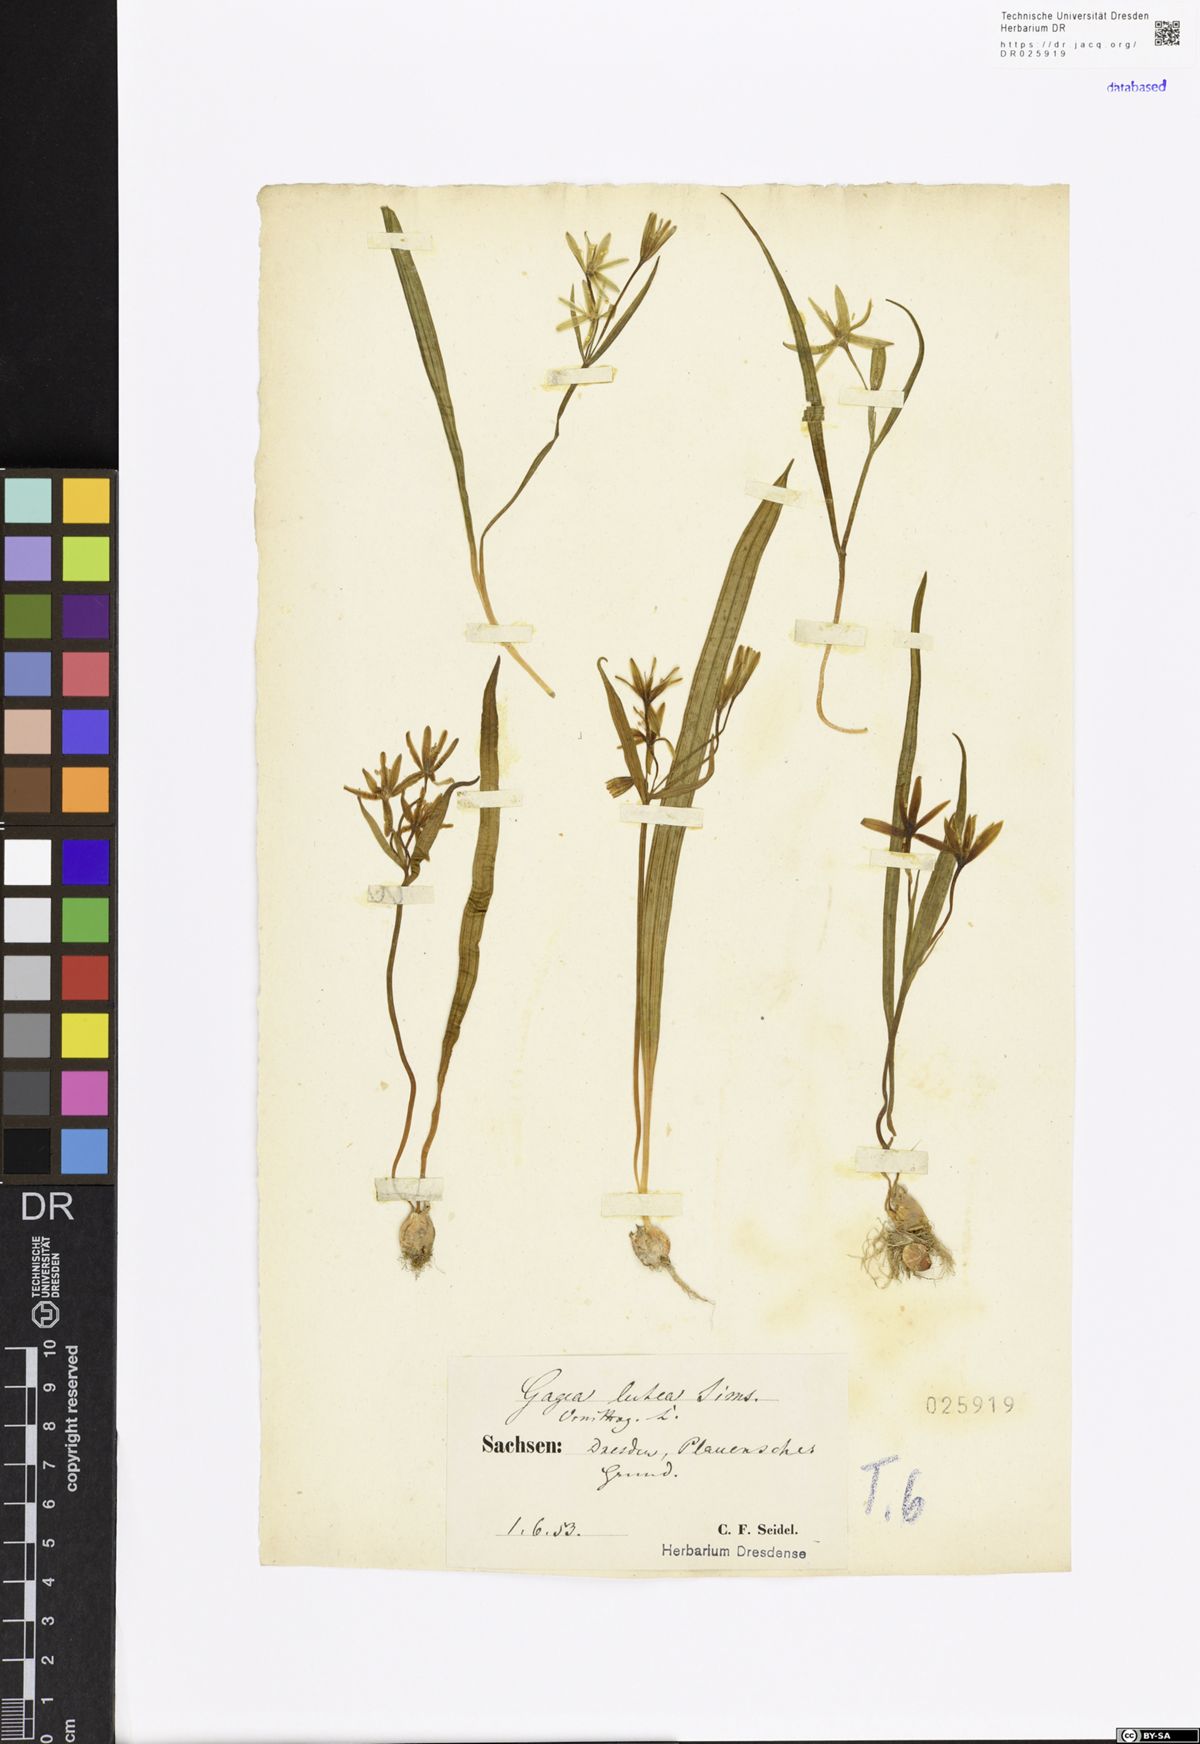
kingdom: Plantae
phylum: Tracheophyta
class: Liliopsida
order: Liliales
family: Liliaceae
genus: Gagea
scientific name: Gagea lutea
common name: Yellow star-of-bethlehem
